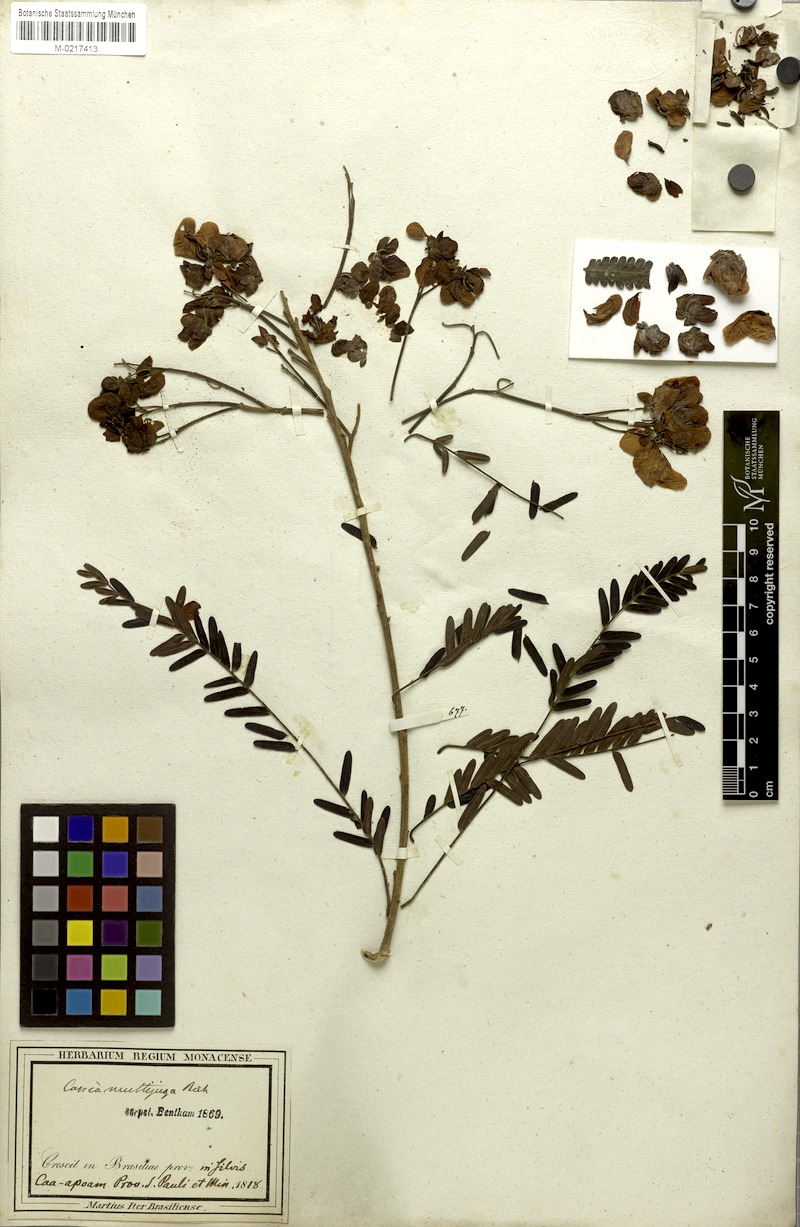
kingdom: Plantae
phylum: Tracheophyta
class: Magnoliopsida
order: Fabales
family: Fabaceae
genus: Senna
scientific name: Senna multijuga
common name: False sicklepod
